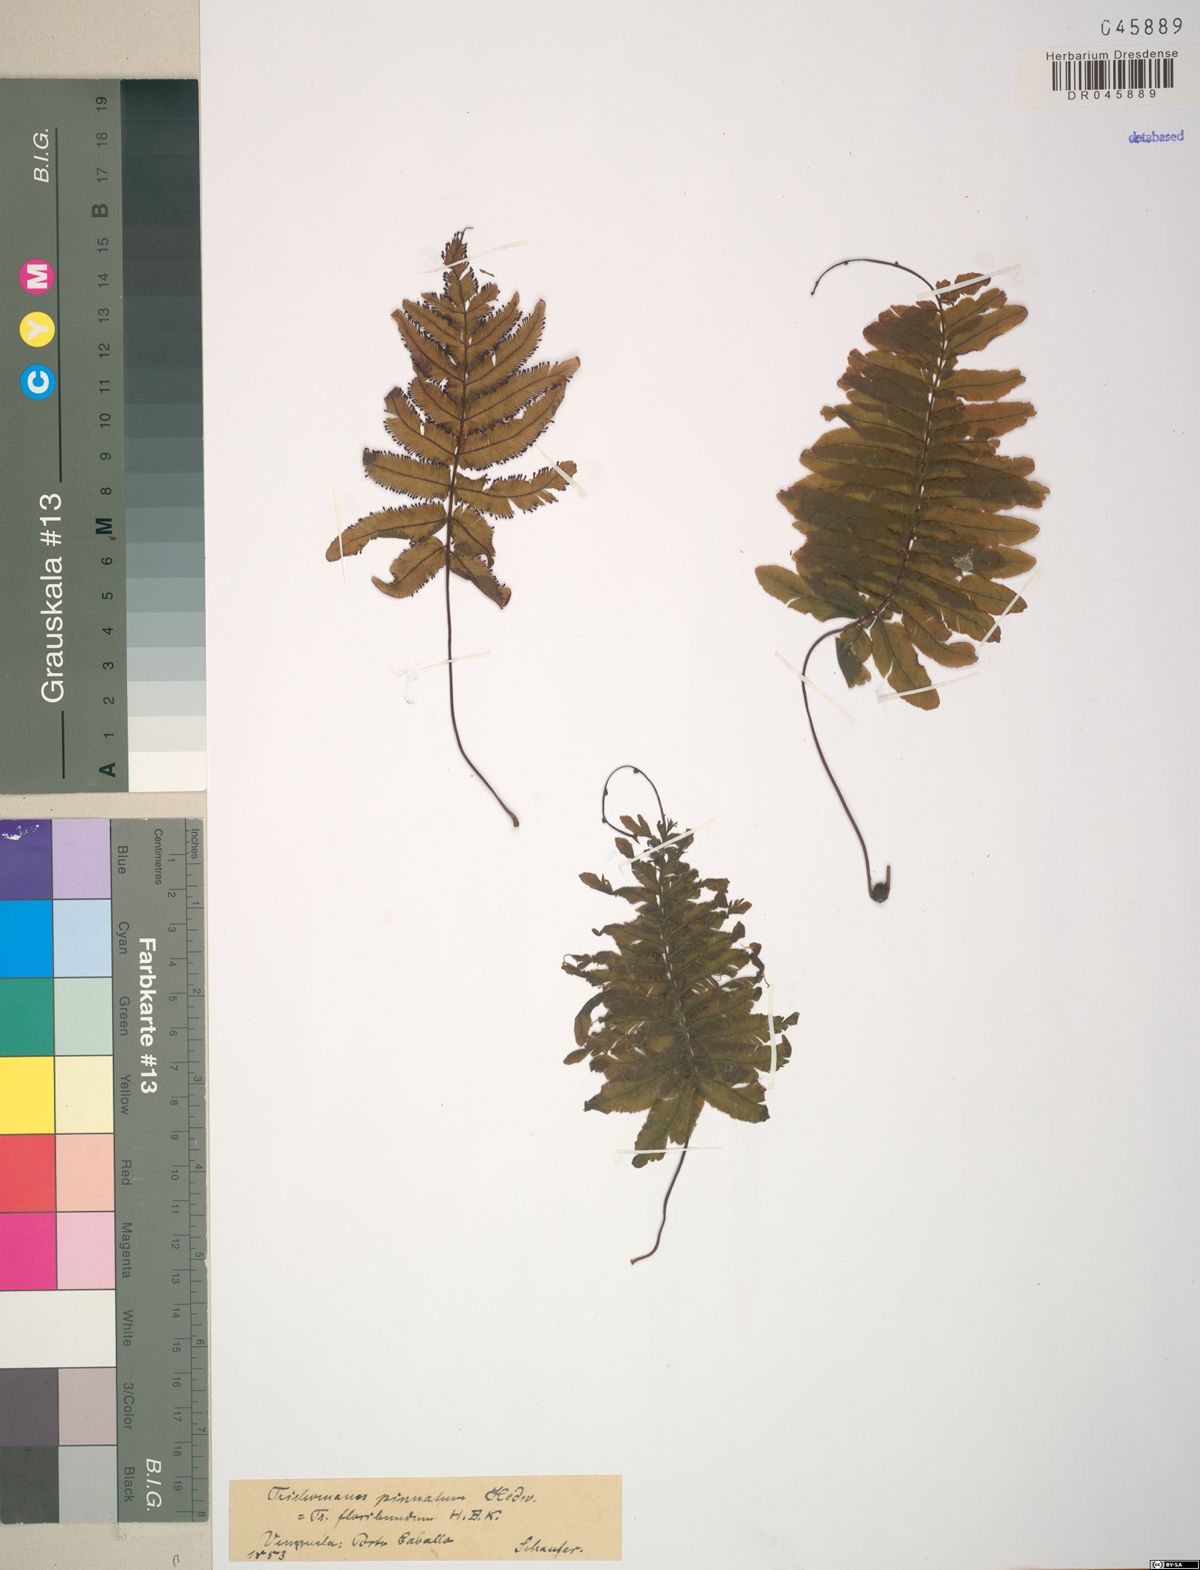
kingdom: Plantae
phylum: Tracheophyta
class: Polypodiopsida
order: Hymenophyllales
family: Hymenophyllaceae
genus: Trichomanes
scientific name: Trichomanes pinnatum
